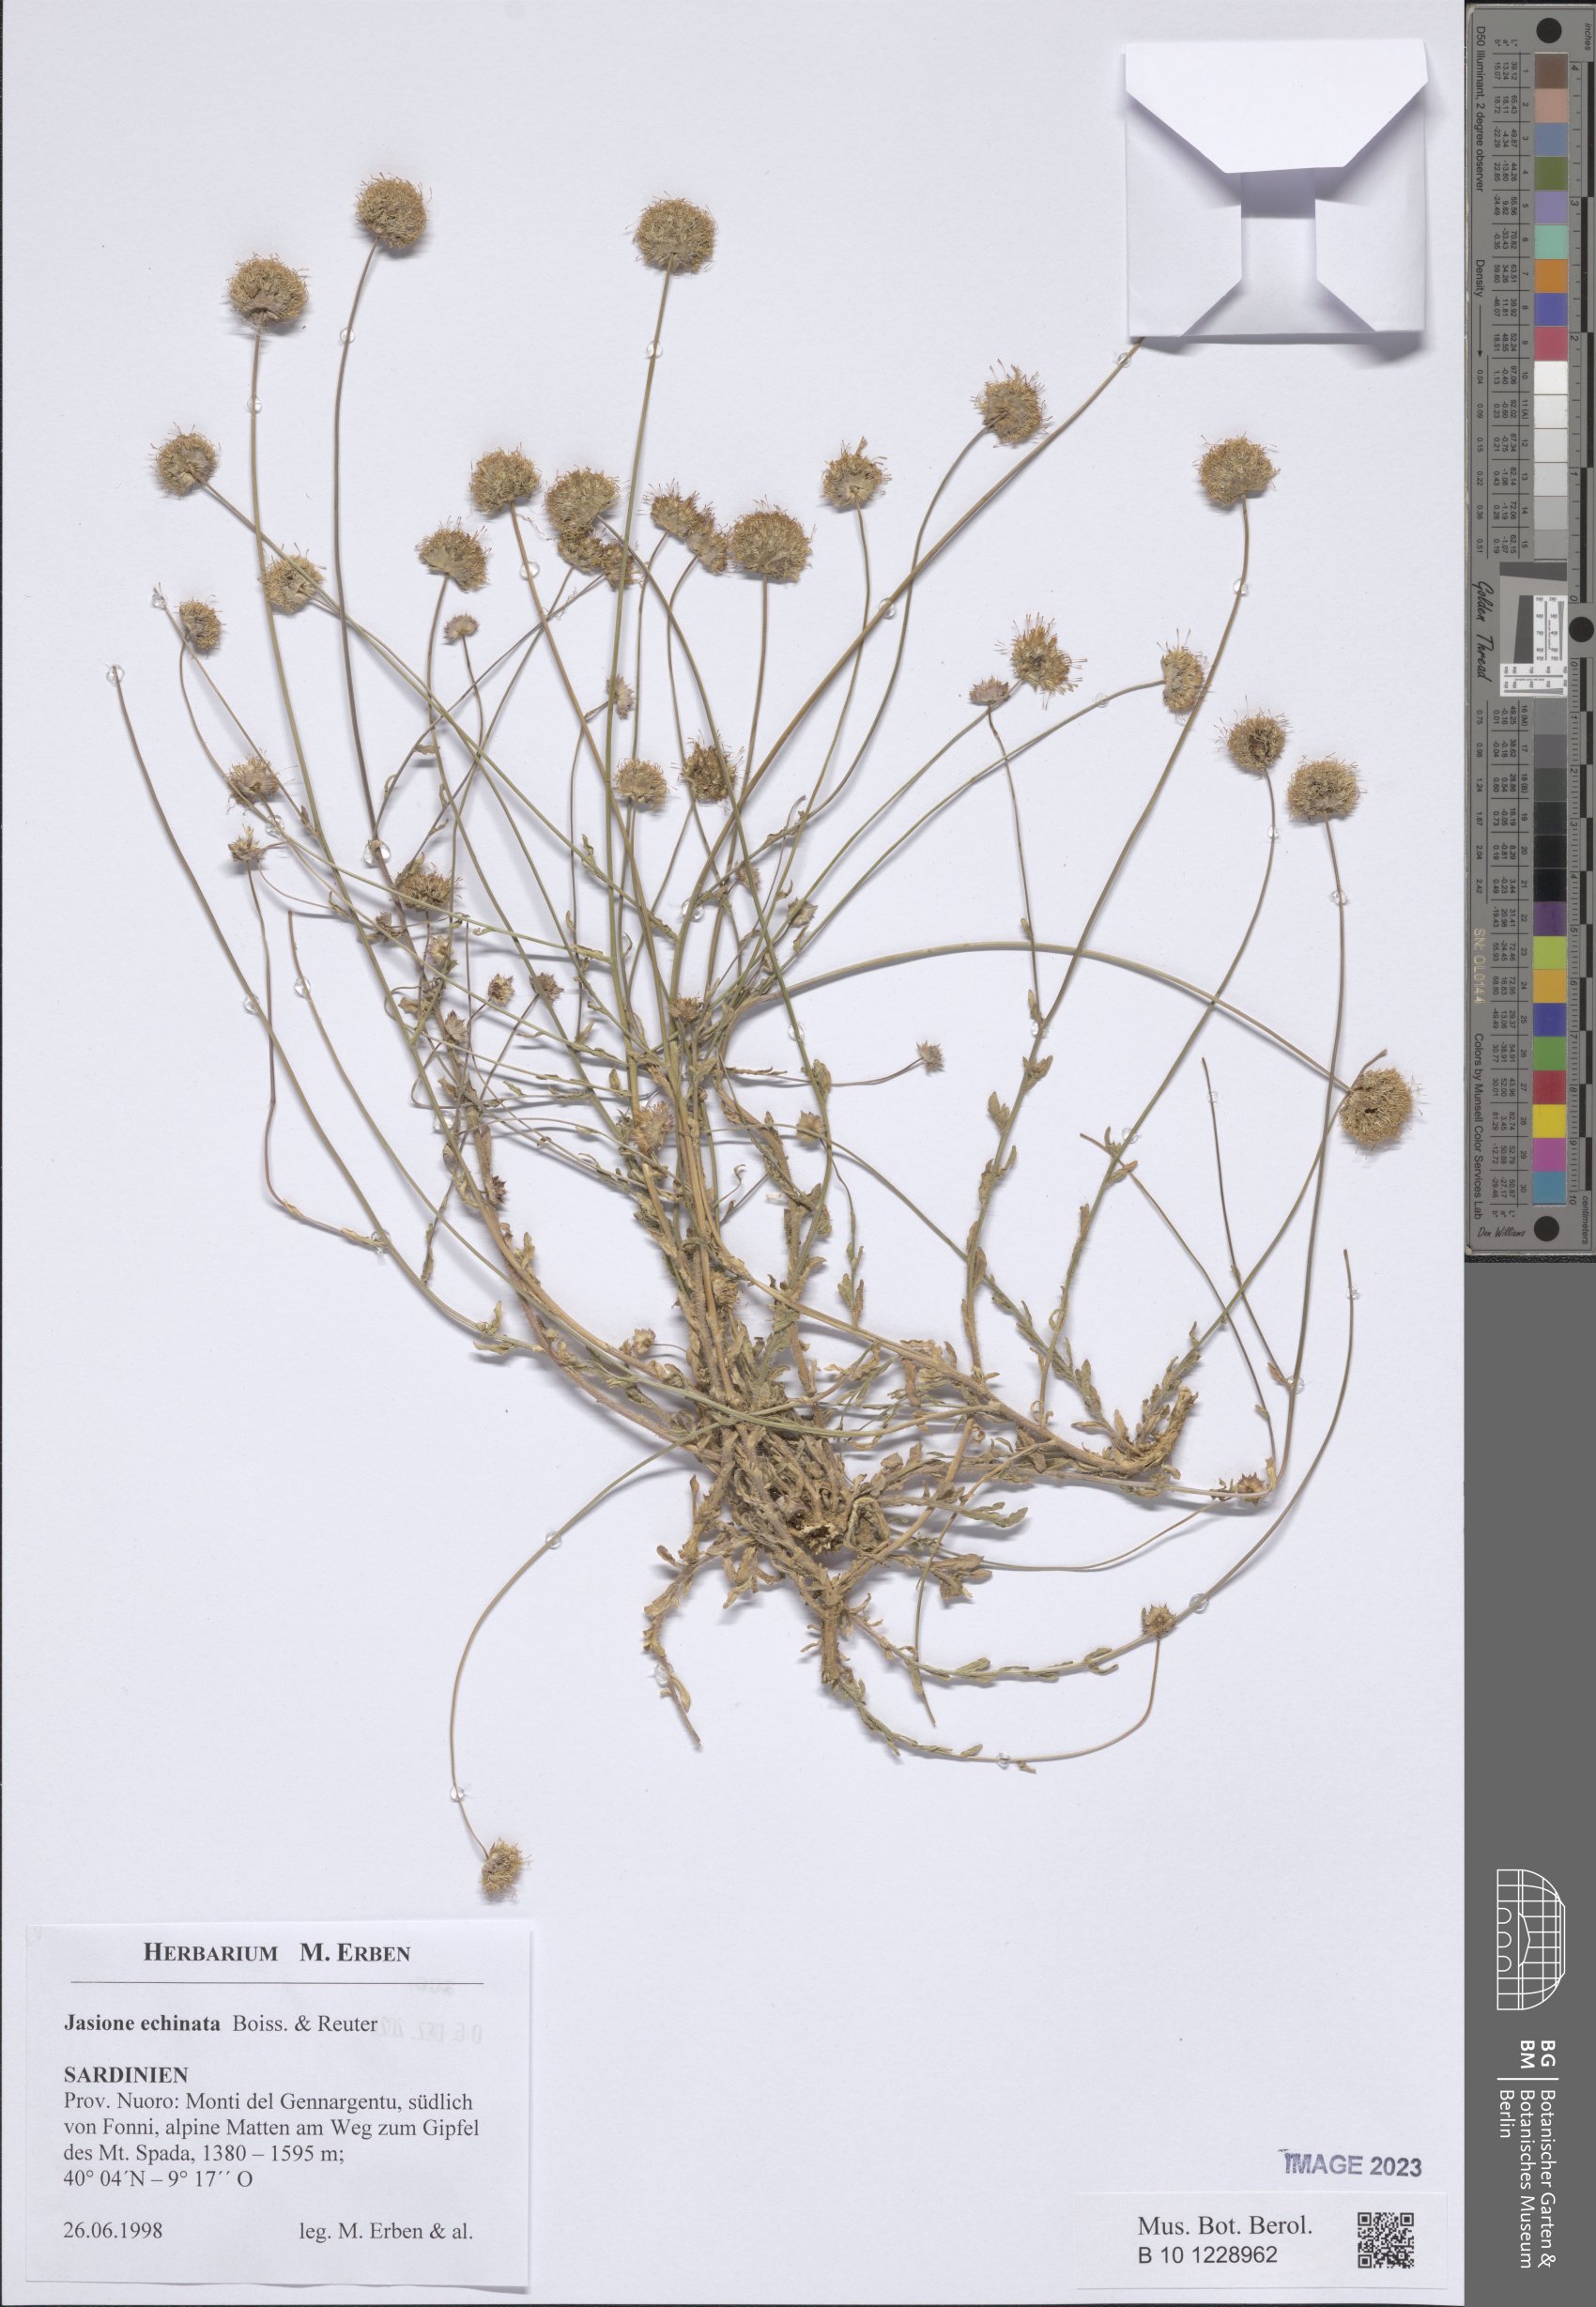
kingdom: Plantae
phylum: Tracheophyta
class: Magnoliopsida
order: Asterales
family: Campanulaceae
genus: Jasione
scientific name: Jasione montana
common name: Sheep's-bit
